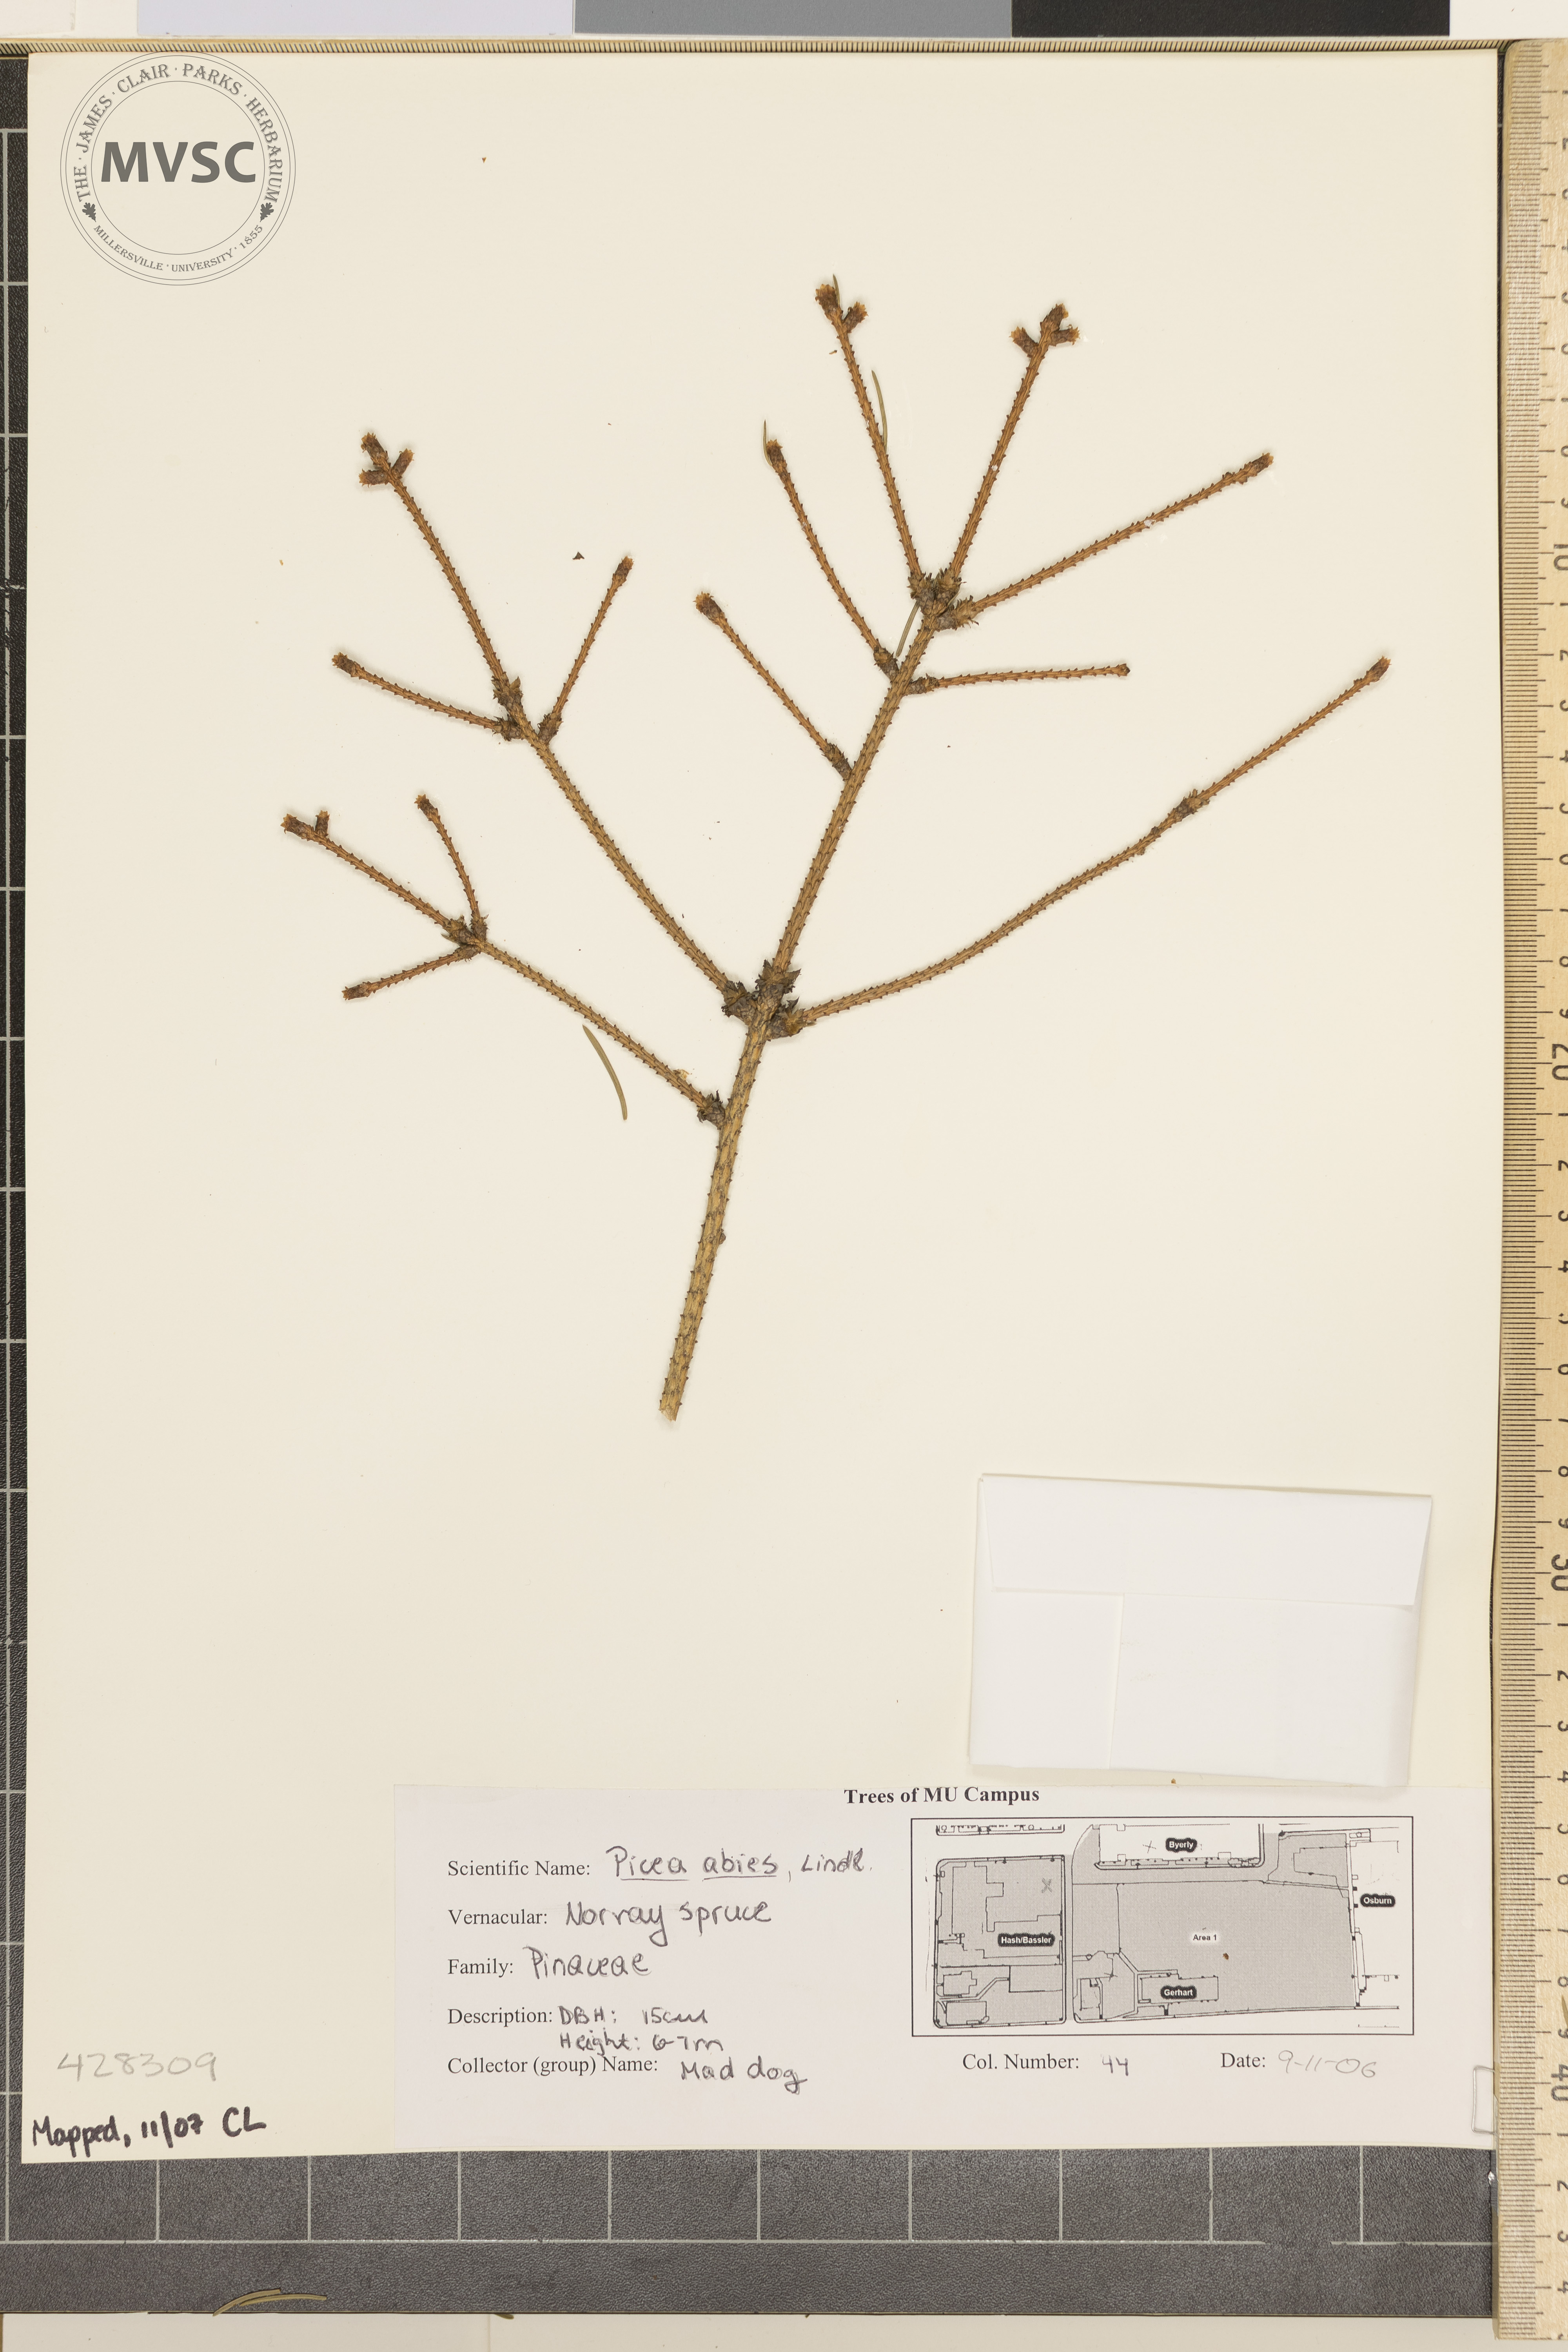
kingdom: Plantae
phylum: Tracheophyta
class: Pinopsida
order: Pinales
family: Pinaceae
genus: Picea
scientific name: Picea abies
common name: Norway spruce
